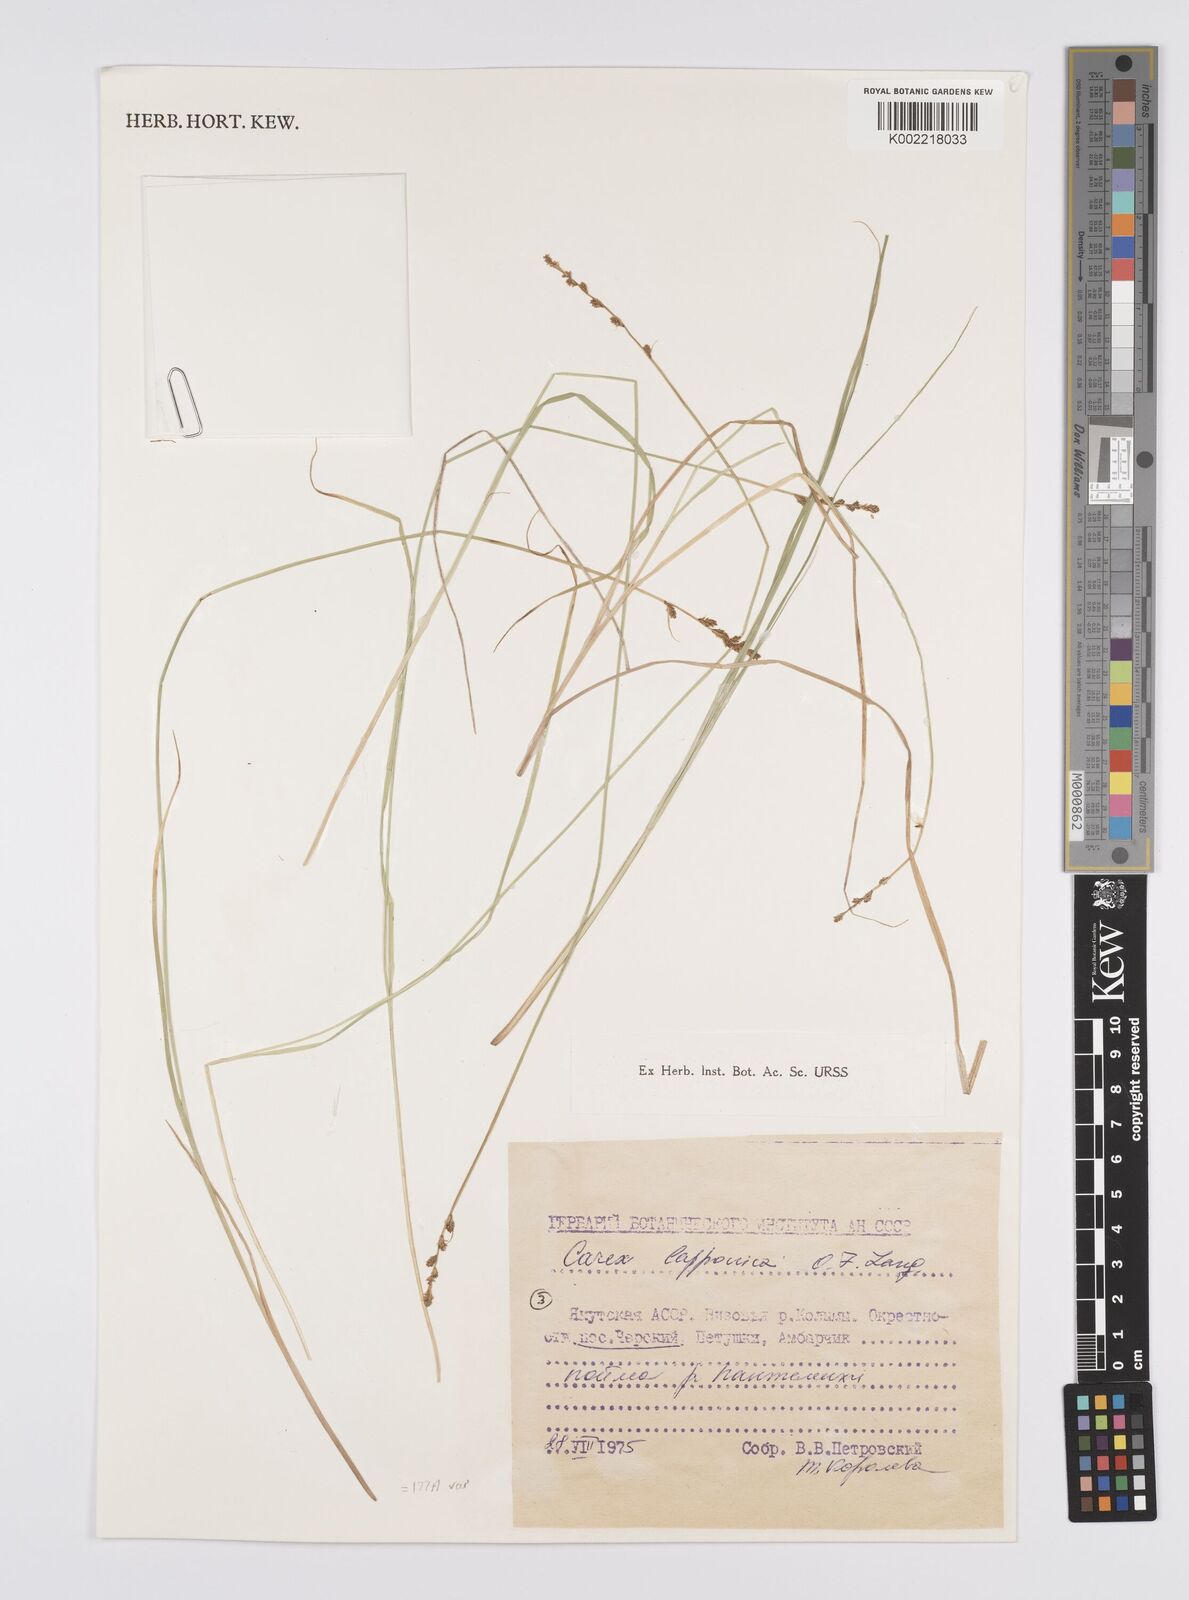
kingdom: Plantae
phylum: Tracheophyta
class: Liliopsida
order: Poales
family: Cyperaceae
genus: Carex
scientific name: Carex canescens
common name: White sedge
